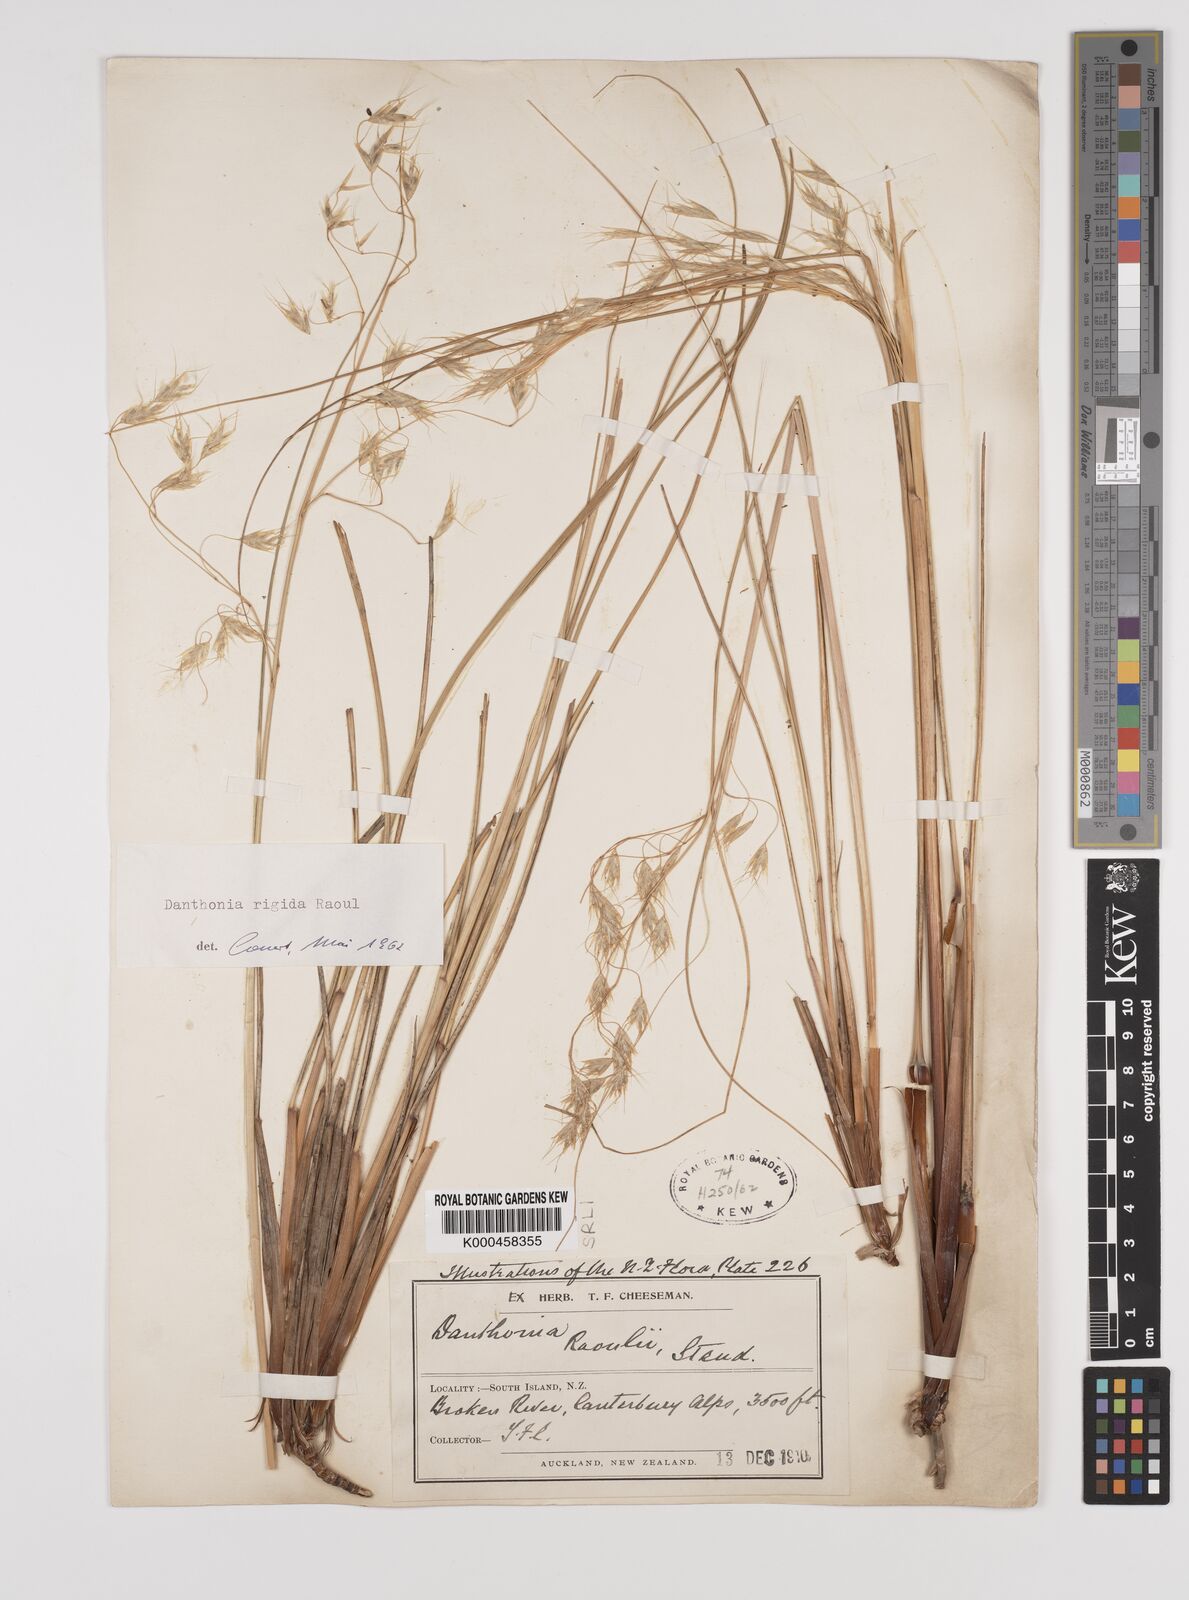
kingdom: Plantae
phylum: Tracheophyta
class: Liliopsida
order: Poales
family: Poaceae
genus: Chionochloa
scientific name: Chionochloa rigida
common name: Narrow leaved snow tussock
